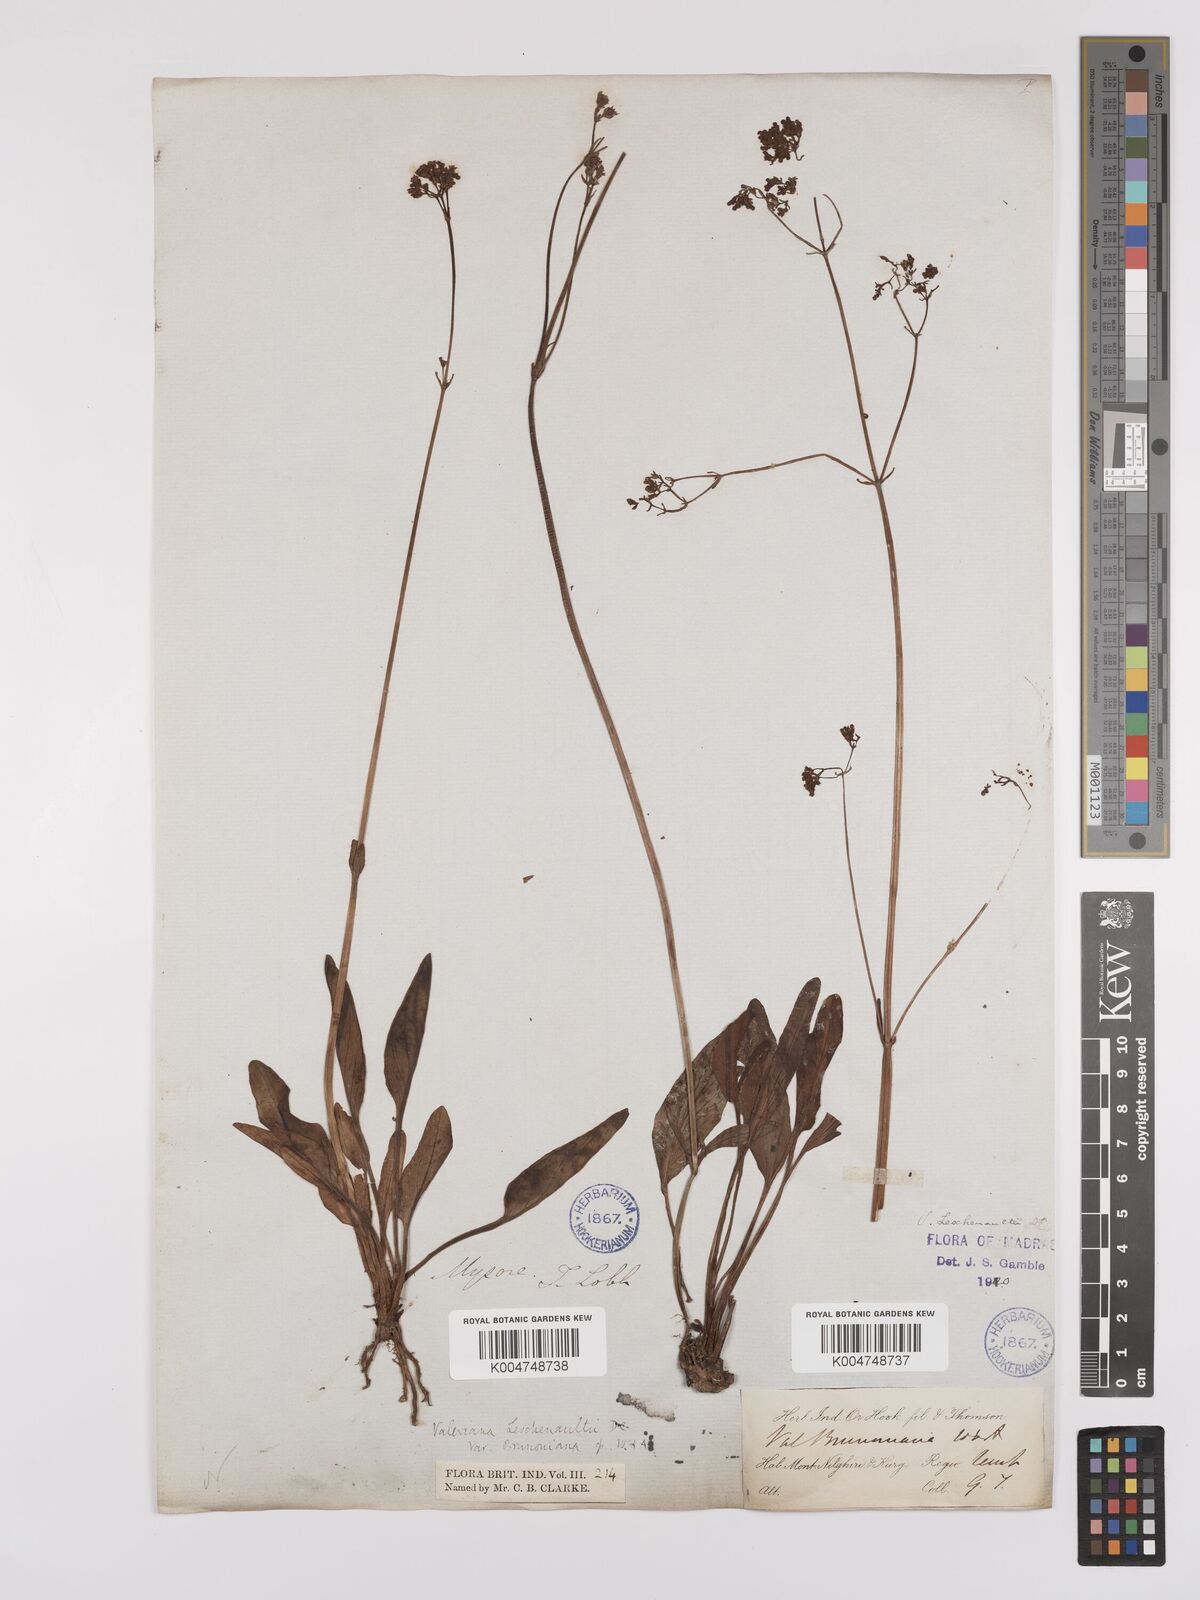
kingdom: Plantae
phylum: Tracheophyta
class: Magnoliopsida
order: Dipsacales
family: Caprifoliaceae
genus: Valeriana
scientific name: Valeriana leschenaultii
